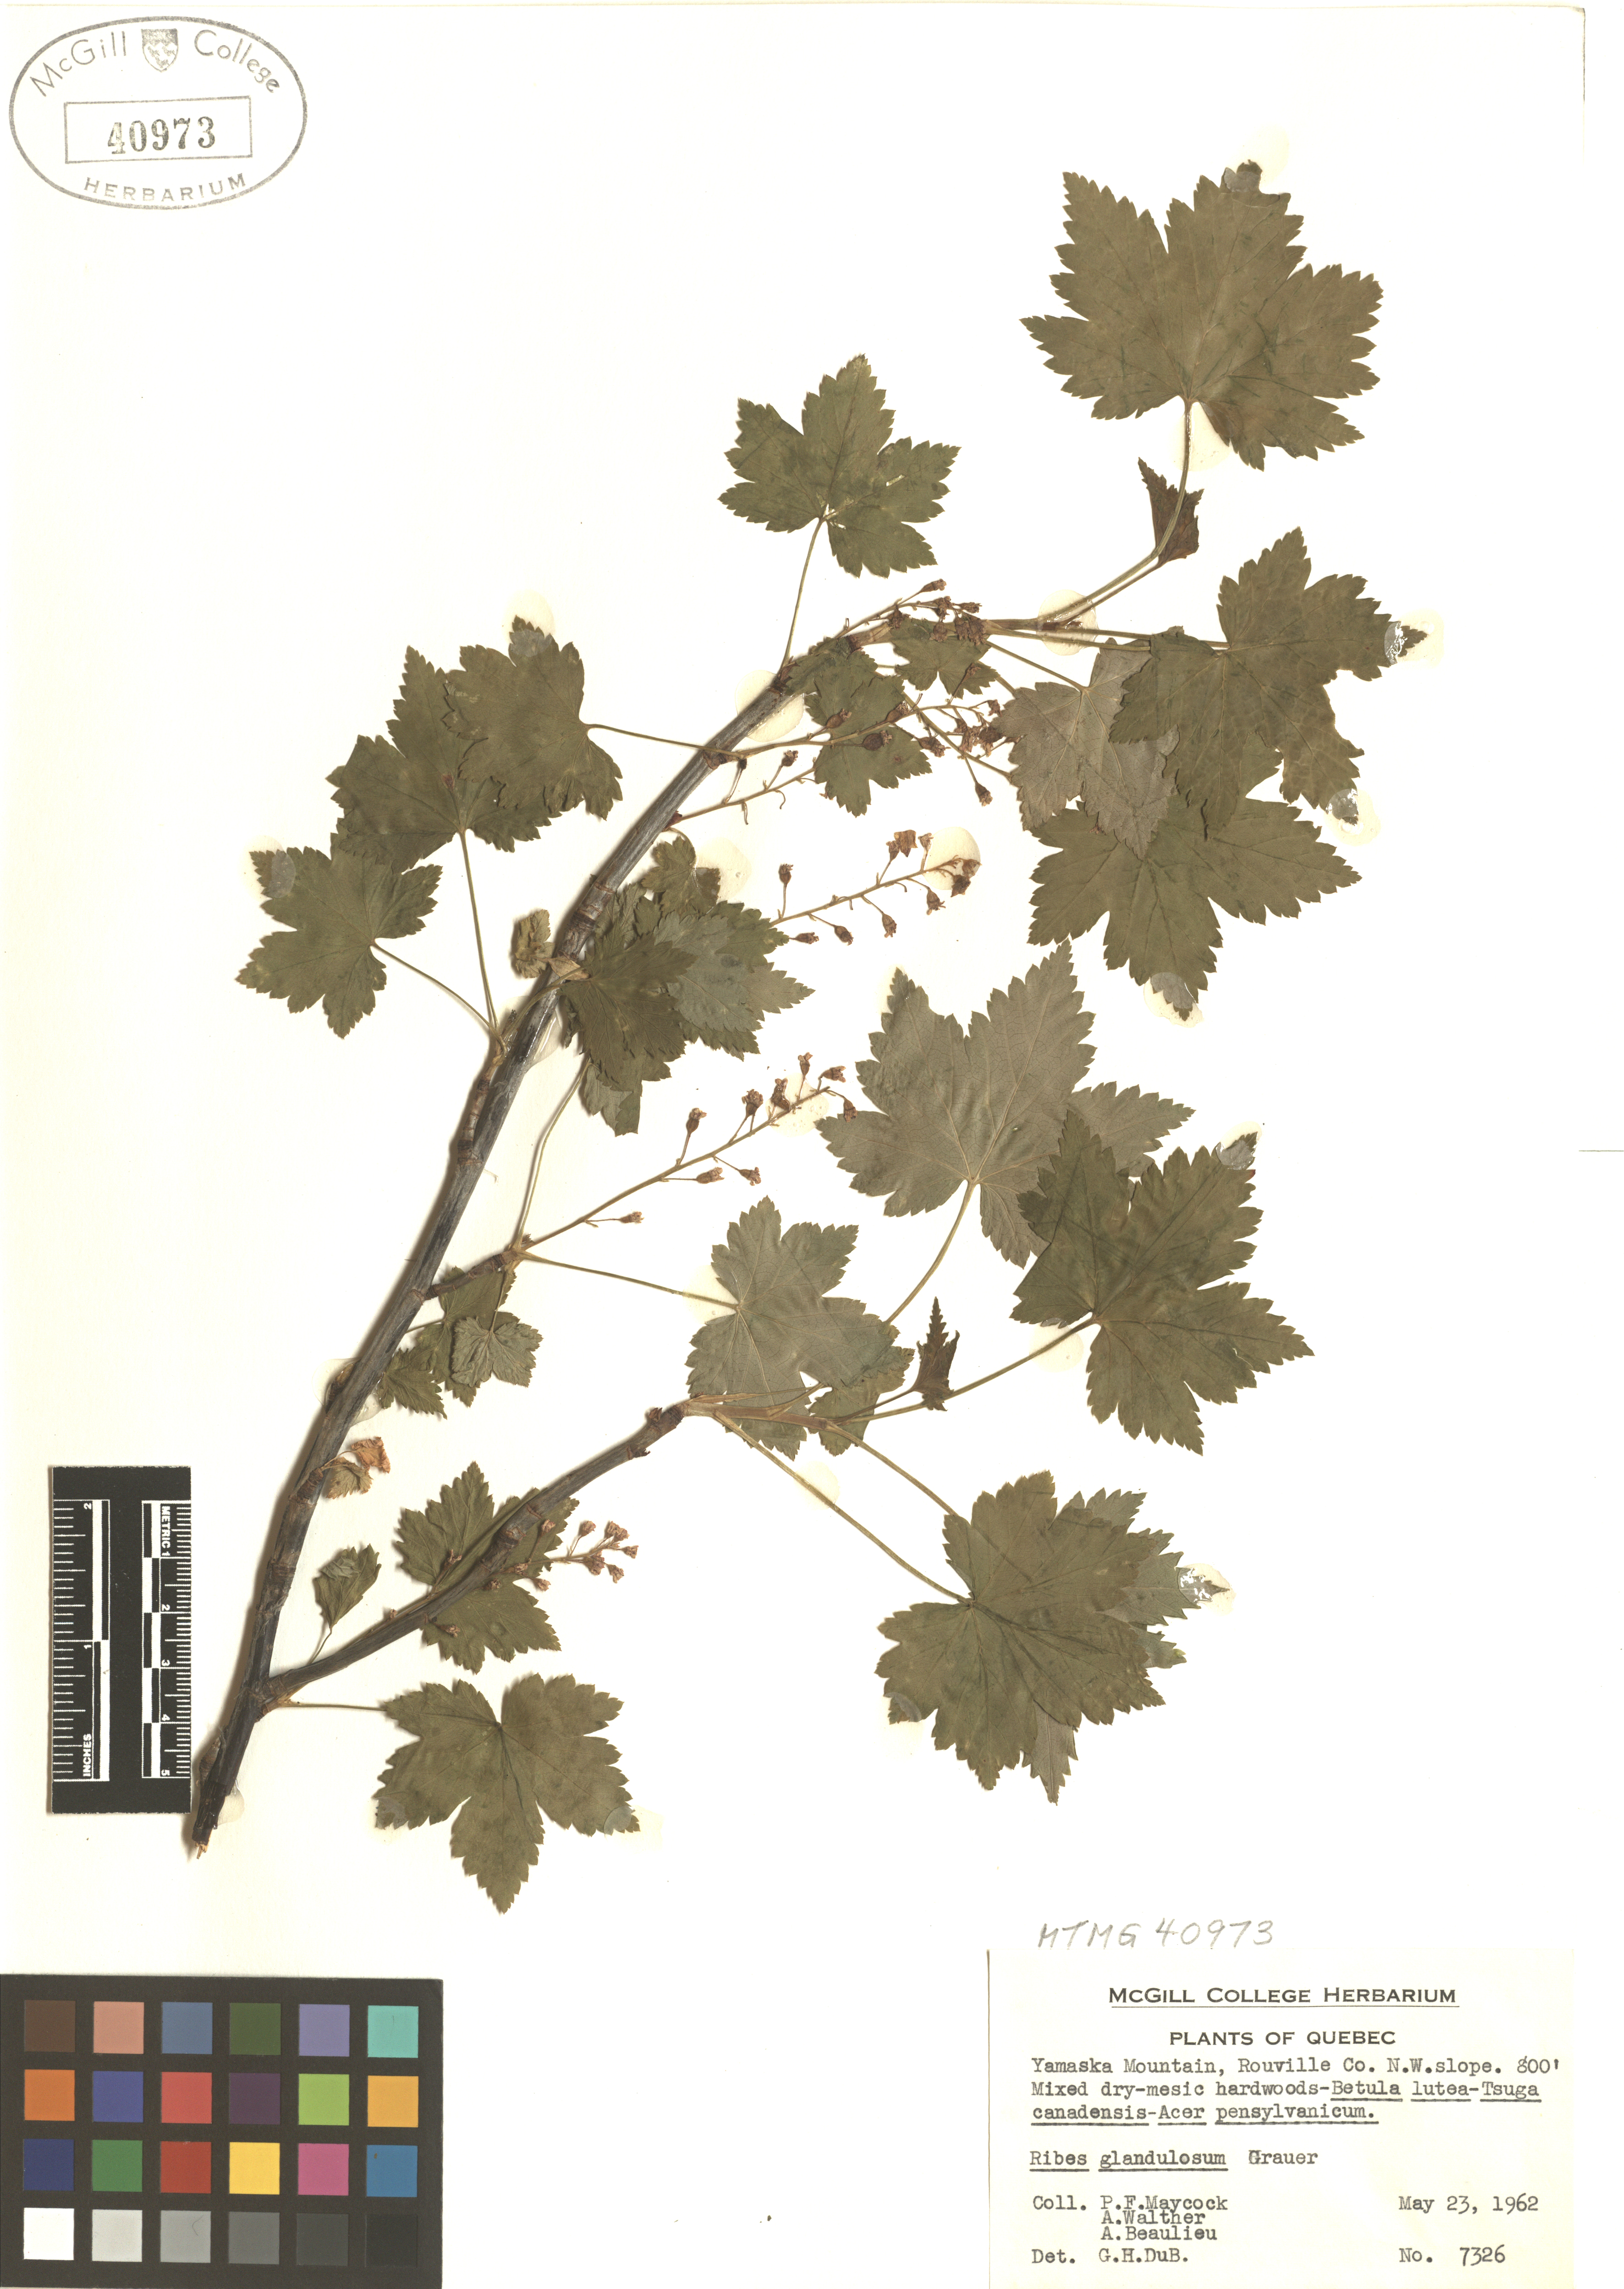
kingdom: Plantae
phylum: Tracheophyta
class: Magnoliopsida
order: Saxifragales
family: Grossulariaceae
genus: Ribes
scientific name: Ribes glandulosum
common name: Skunk currant
